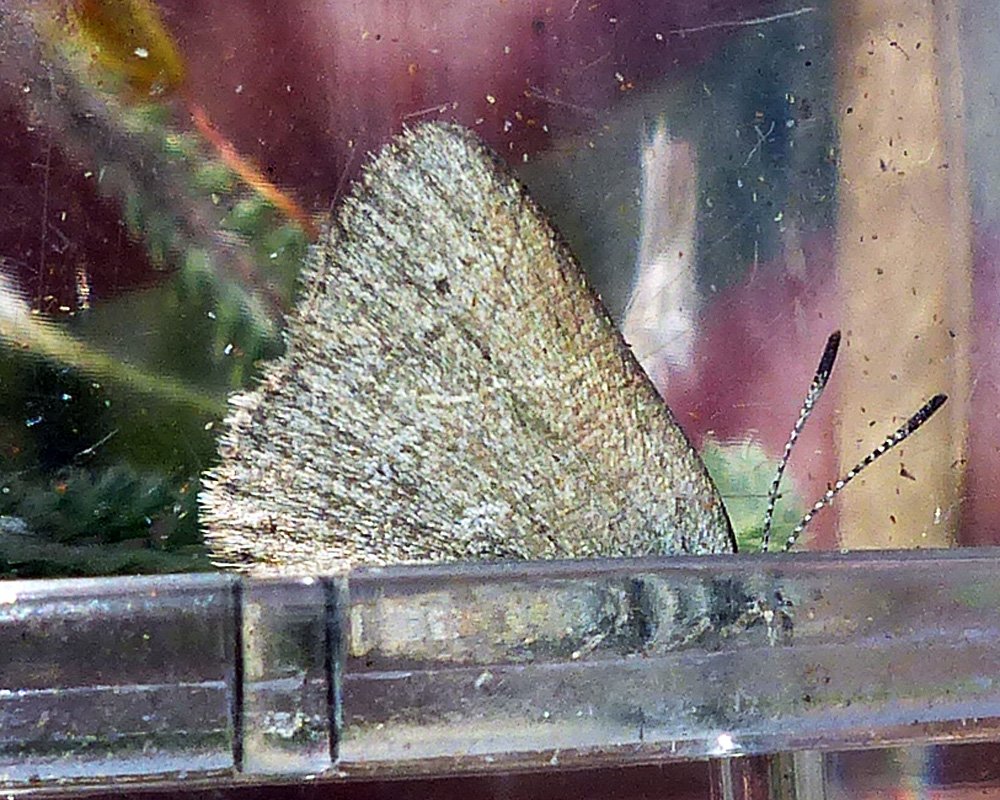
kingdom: Animalia
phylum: Arthropoda
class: Insecta
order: Lepidoptera
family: Lycaenidae
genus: Satyrium
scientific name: Satyrium fuliginosa
